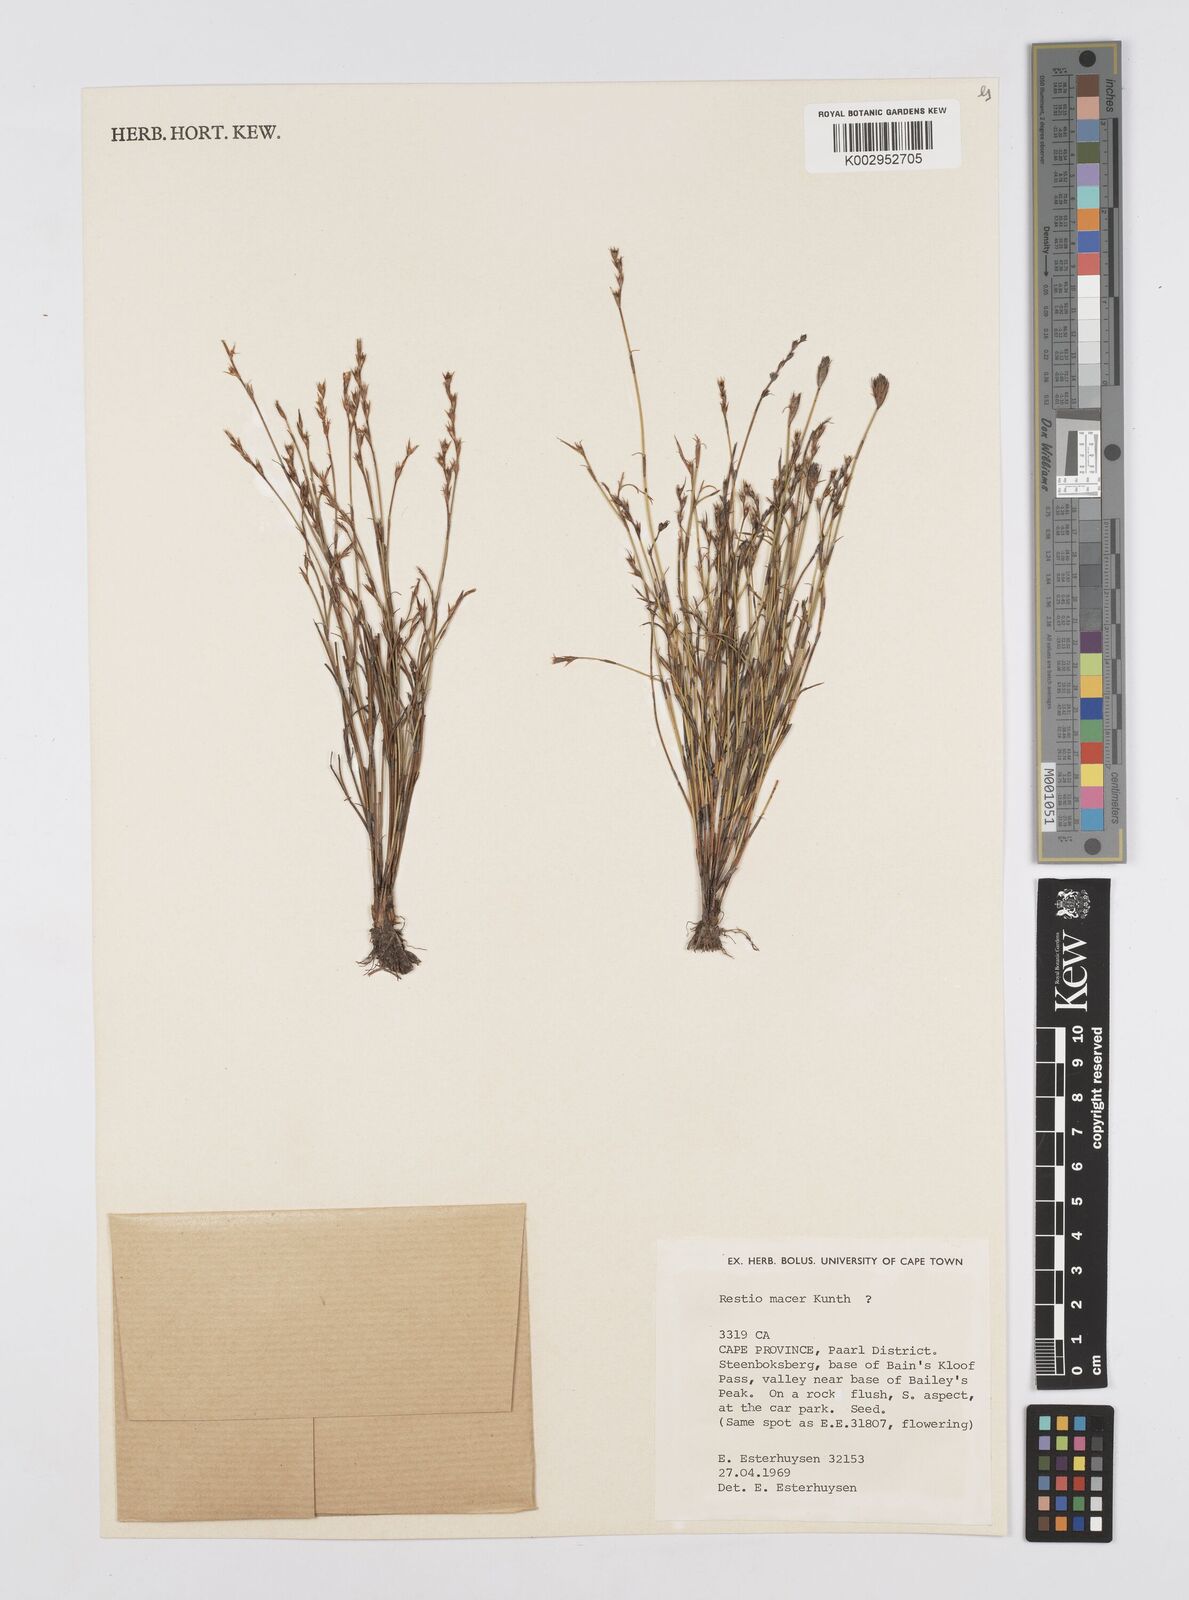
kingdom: Plantae
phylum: Tracheophyta
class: Liliopsida
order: Poales
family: Restionaceae
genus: Restio
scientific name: Restio macer
